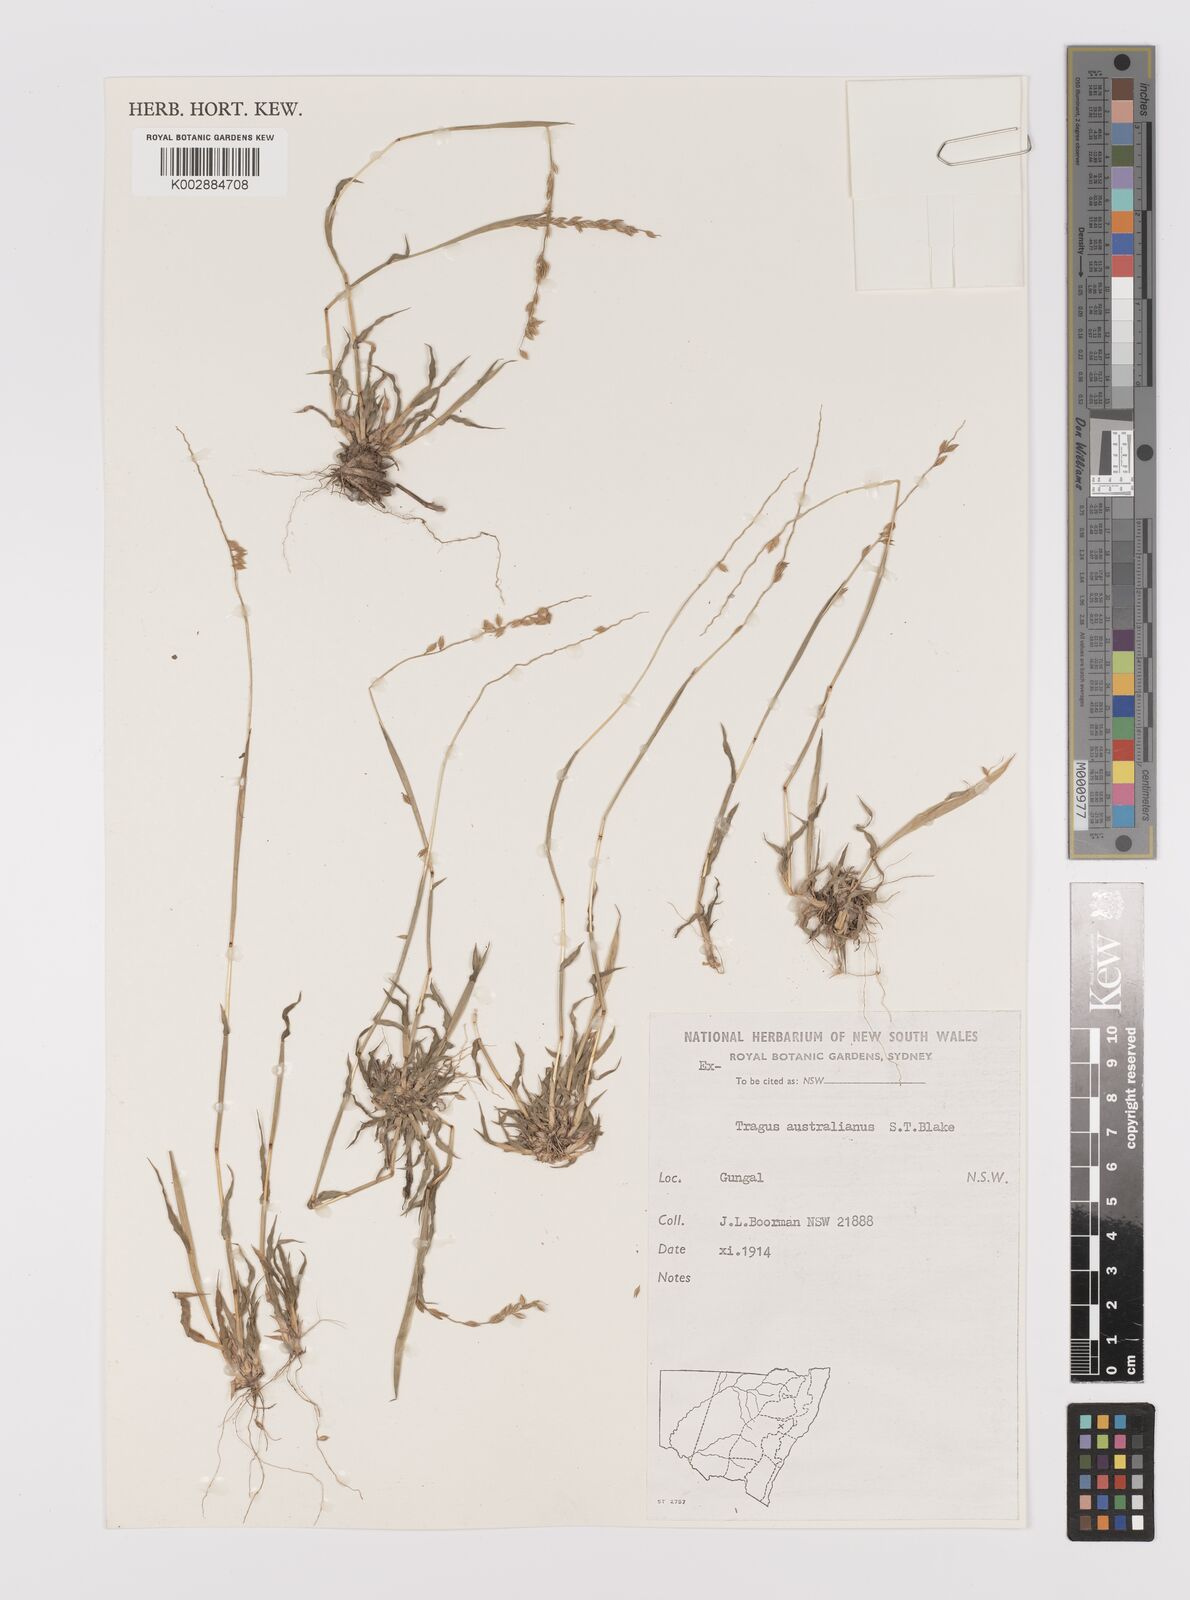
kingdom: Plantae
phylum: Tracheophyta
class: Liliopsida
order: Poales
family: Poaceae
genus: Tragus
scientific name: Tragus australianus
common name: Australian bur-grass
